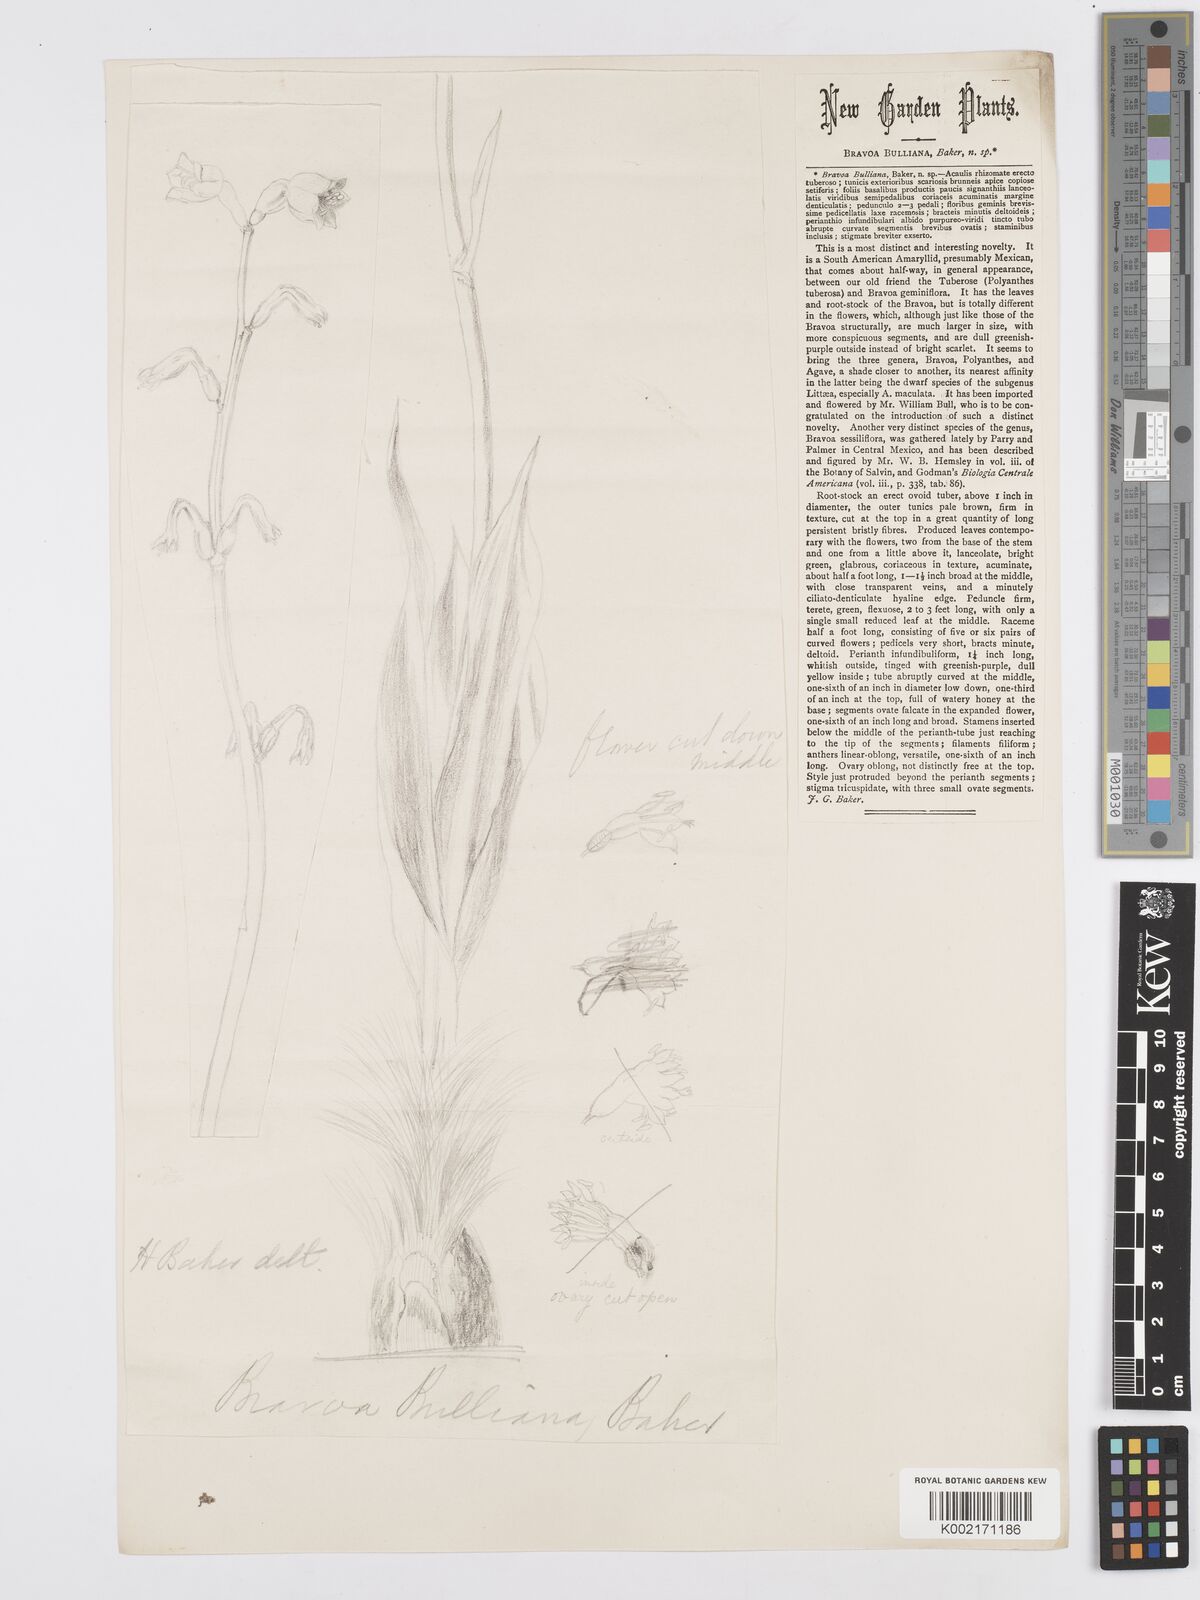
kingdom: Plantae
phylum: Tracheophyta
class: Liliopsida
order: Asparagales
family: Asparagaceae
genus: Agave
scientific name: Agave bulliana
